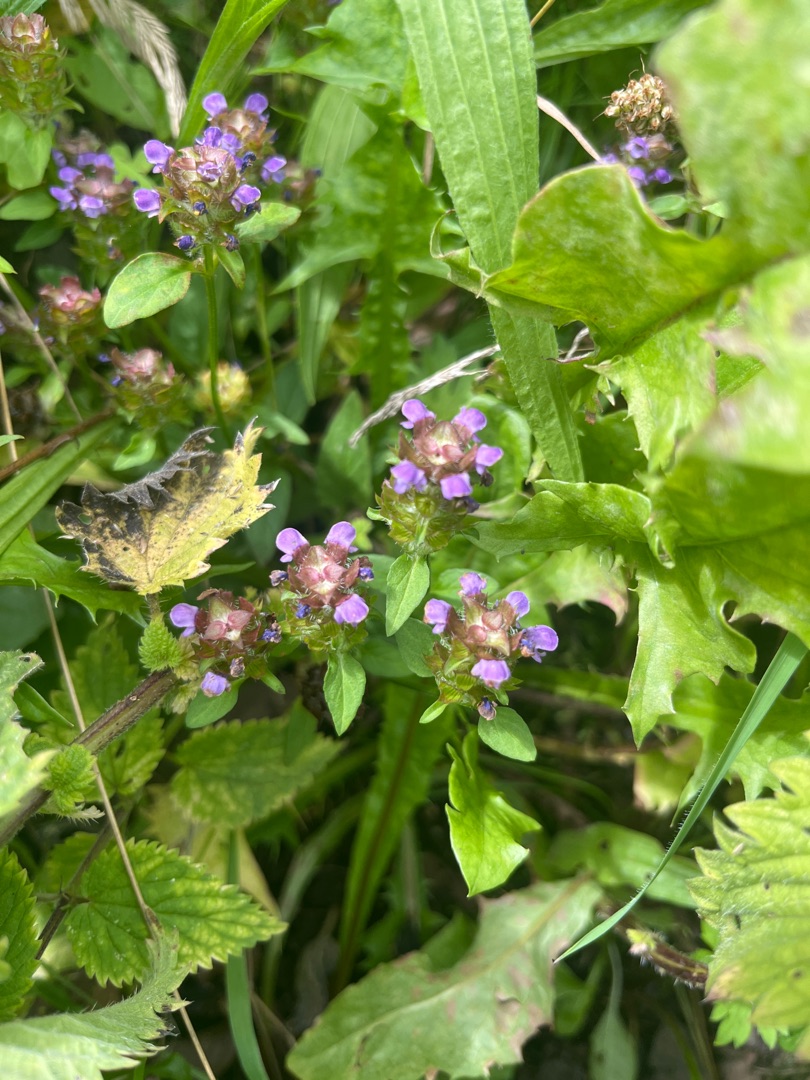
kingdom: Plantae
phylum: Tracheophyta
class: Magnoliopsida
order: Lamiales
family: Lamiaceae
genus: Prunella
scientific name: Prunella vulgaris
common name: Almindelig brunelle
